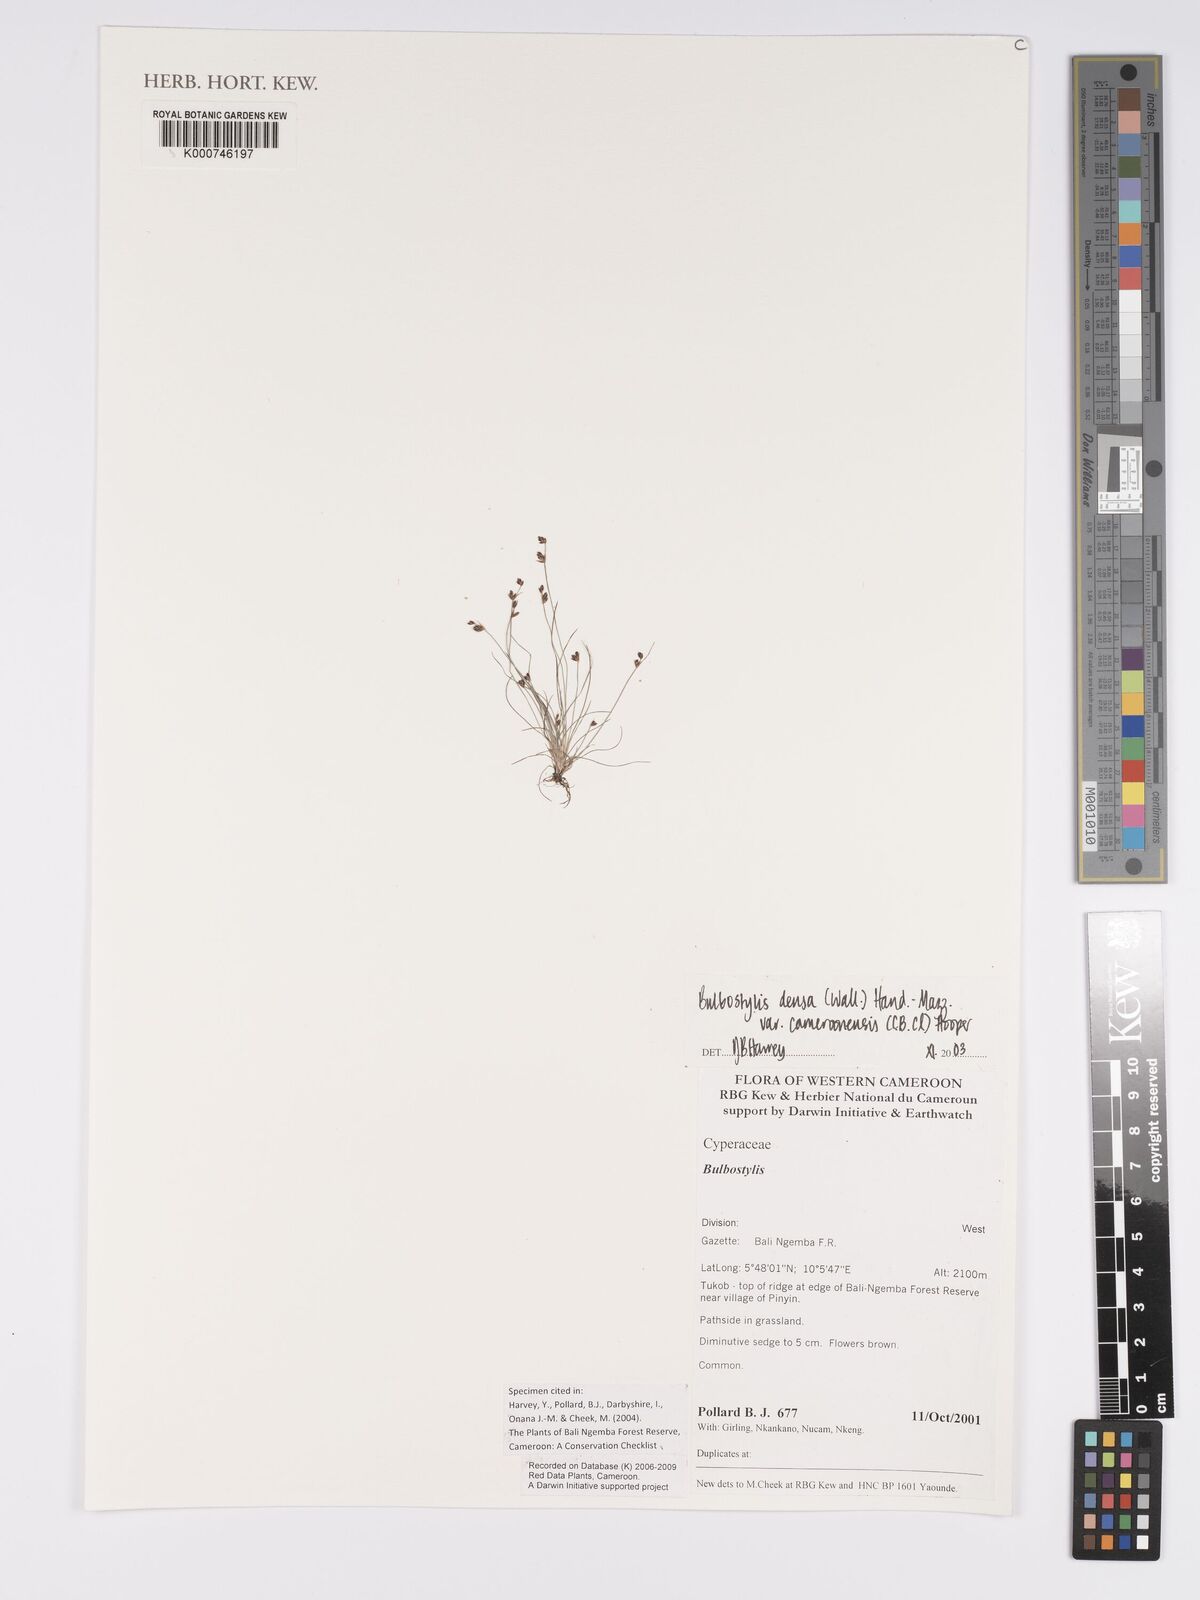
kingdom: Plantae
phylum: Tracheophyta
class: Liliopsida
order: Poales
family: Cyperaceae
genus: Bulbostylis
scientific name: Bulbostylis densa
